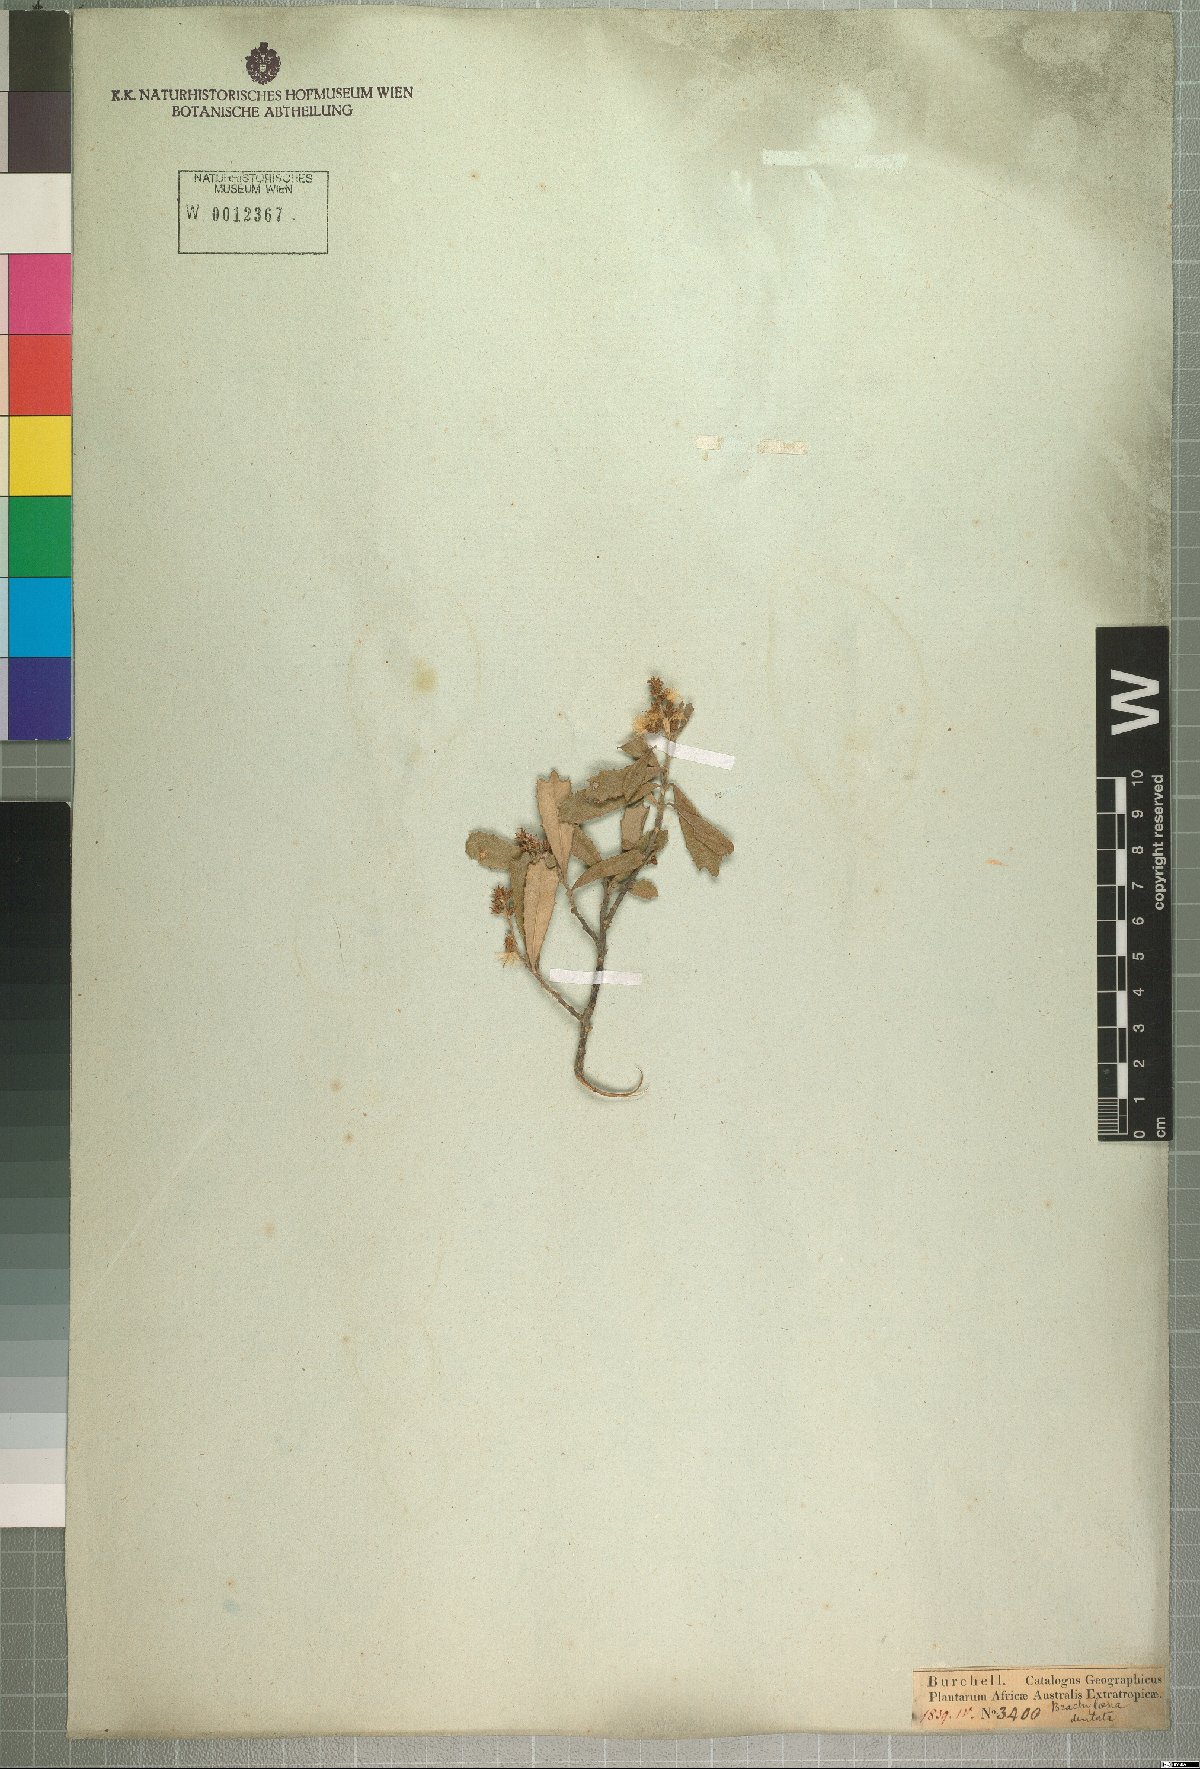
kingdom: Plantae
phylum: Tracheophyta
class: Magnoliopsida
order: Asterales
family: Asteraceae
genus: Brachylaena
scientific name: Brachylaena elliptica
